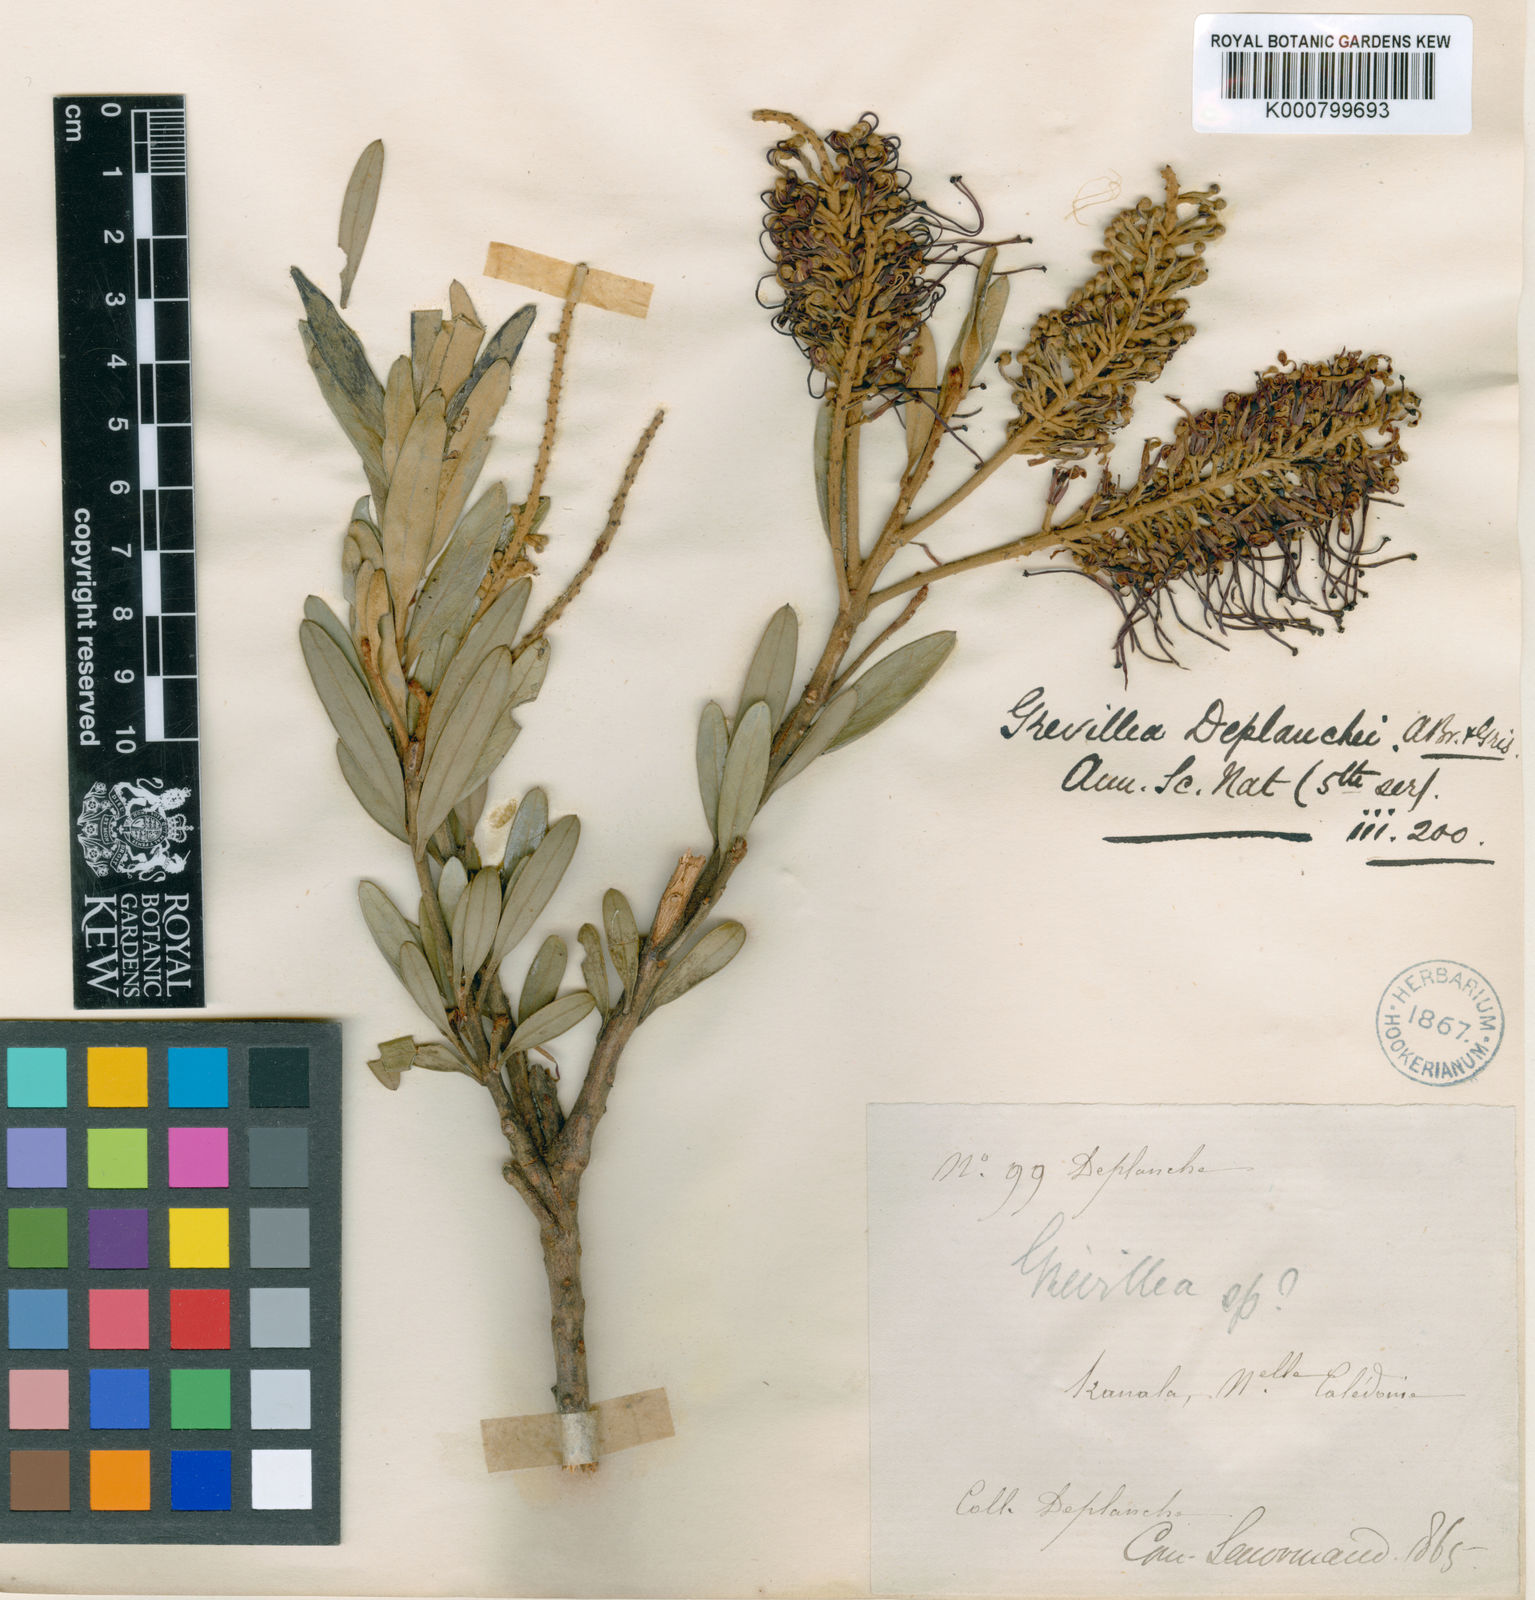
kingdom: Plantae
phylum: Tracheophyta
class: Magnoliopsida
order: Proteales
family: Proteaceae
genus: Grevillea
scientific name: Grevillea gillivrayi
